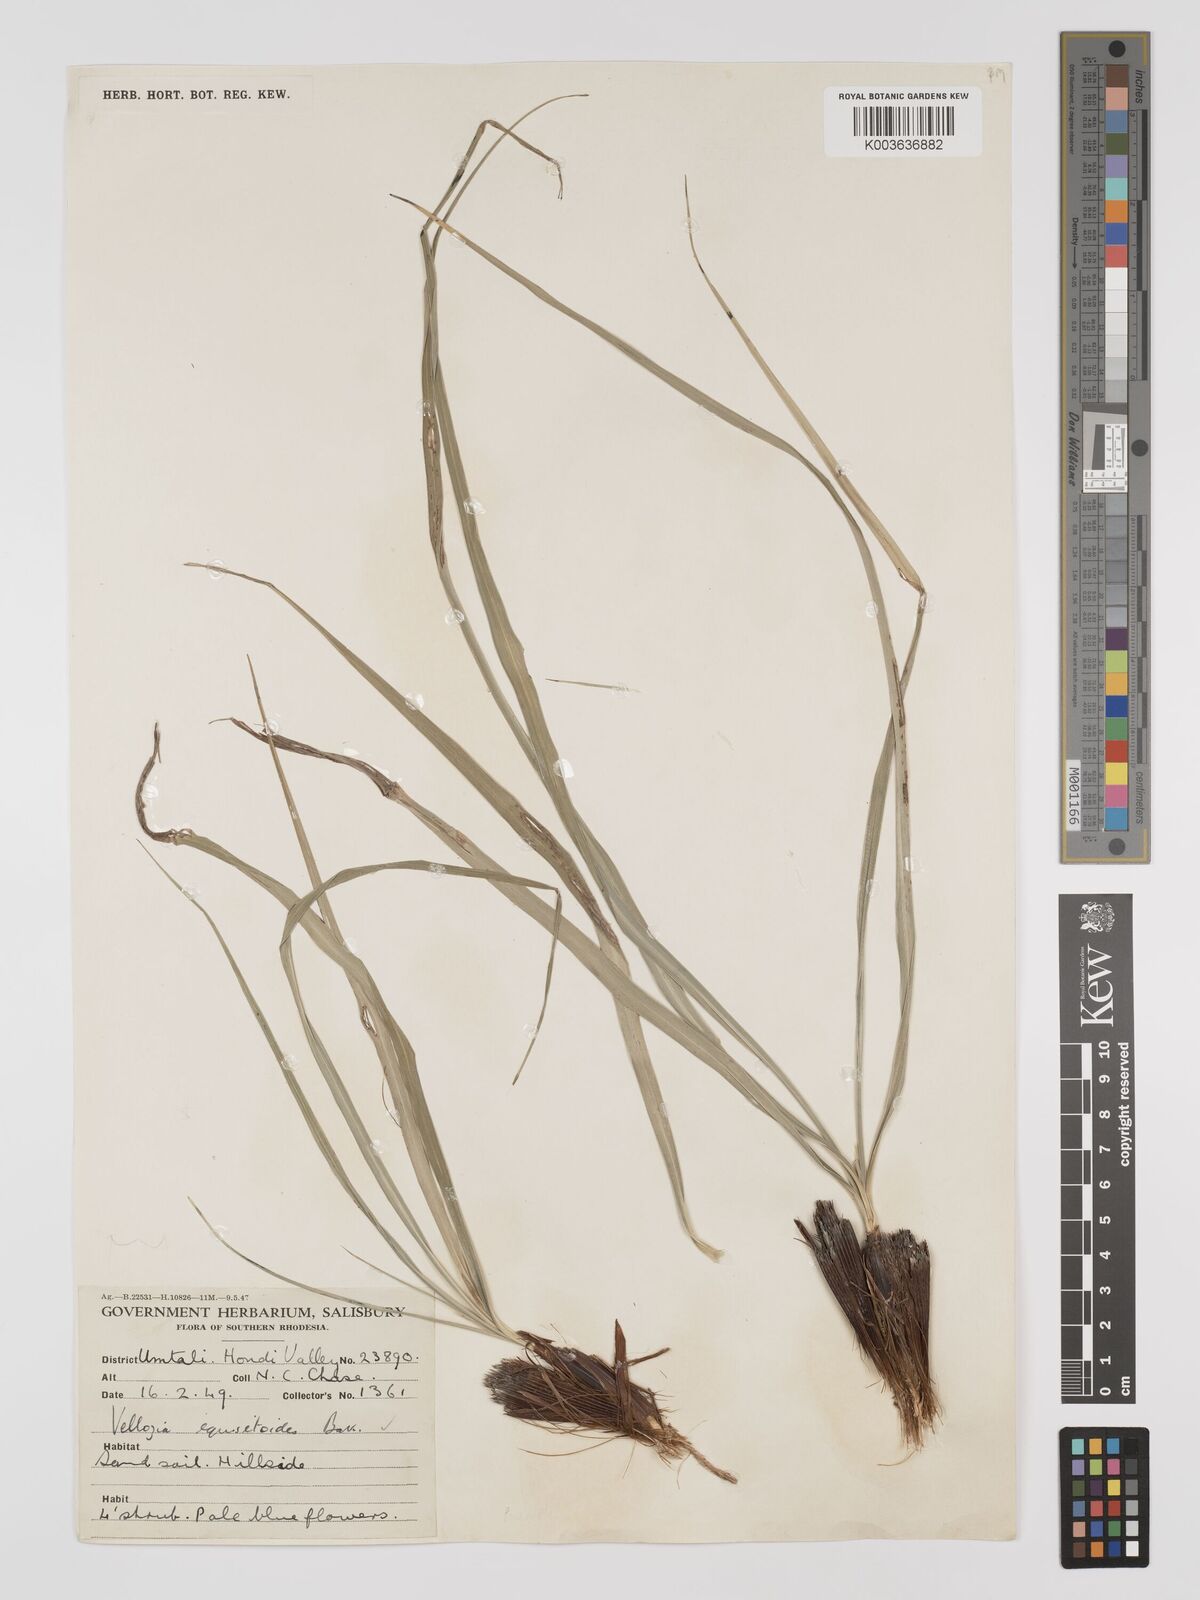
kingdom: Plantae
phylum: Tracheophyta
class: Liliopsida
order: Pandanales
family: Velloziaceae
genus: Xerophyta
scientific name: Xerophyta
